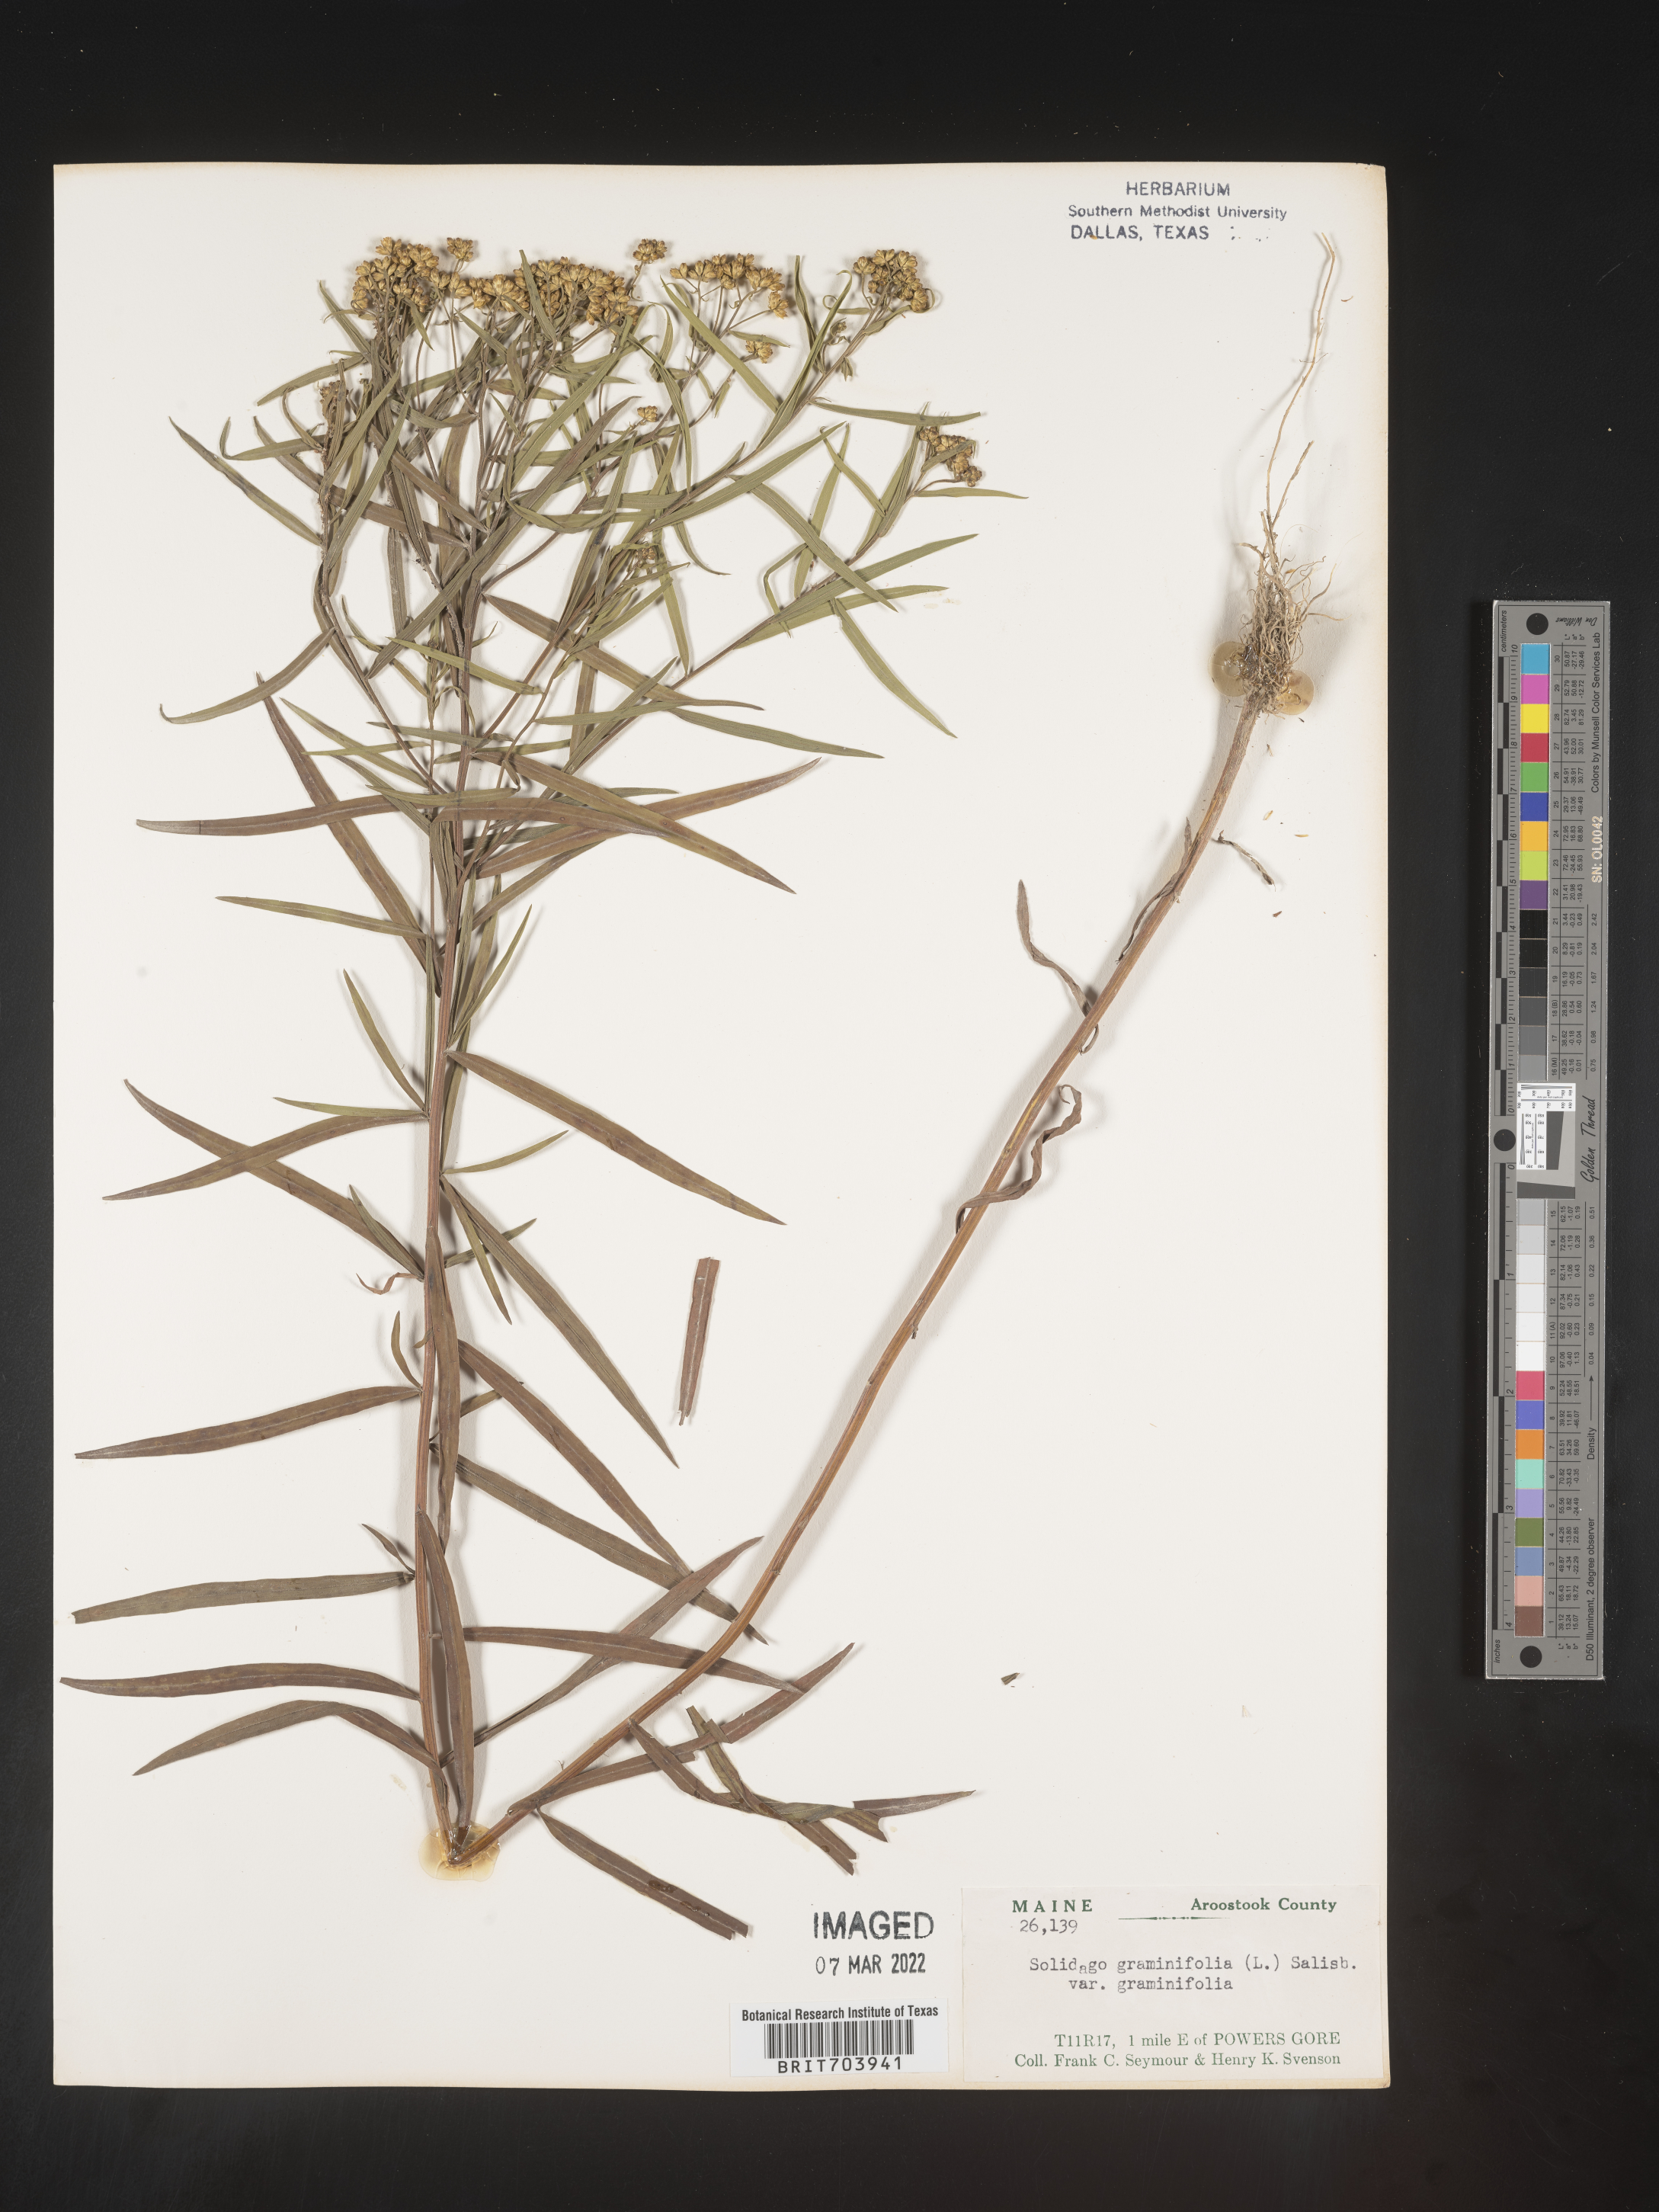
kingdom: Plantae
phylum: Tracheophyta
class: Magnoliopsida
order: Asterales
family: Asteraceae
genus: Euthamia
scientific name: Euthamia graminifolia
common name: Common goldentop
